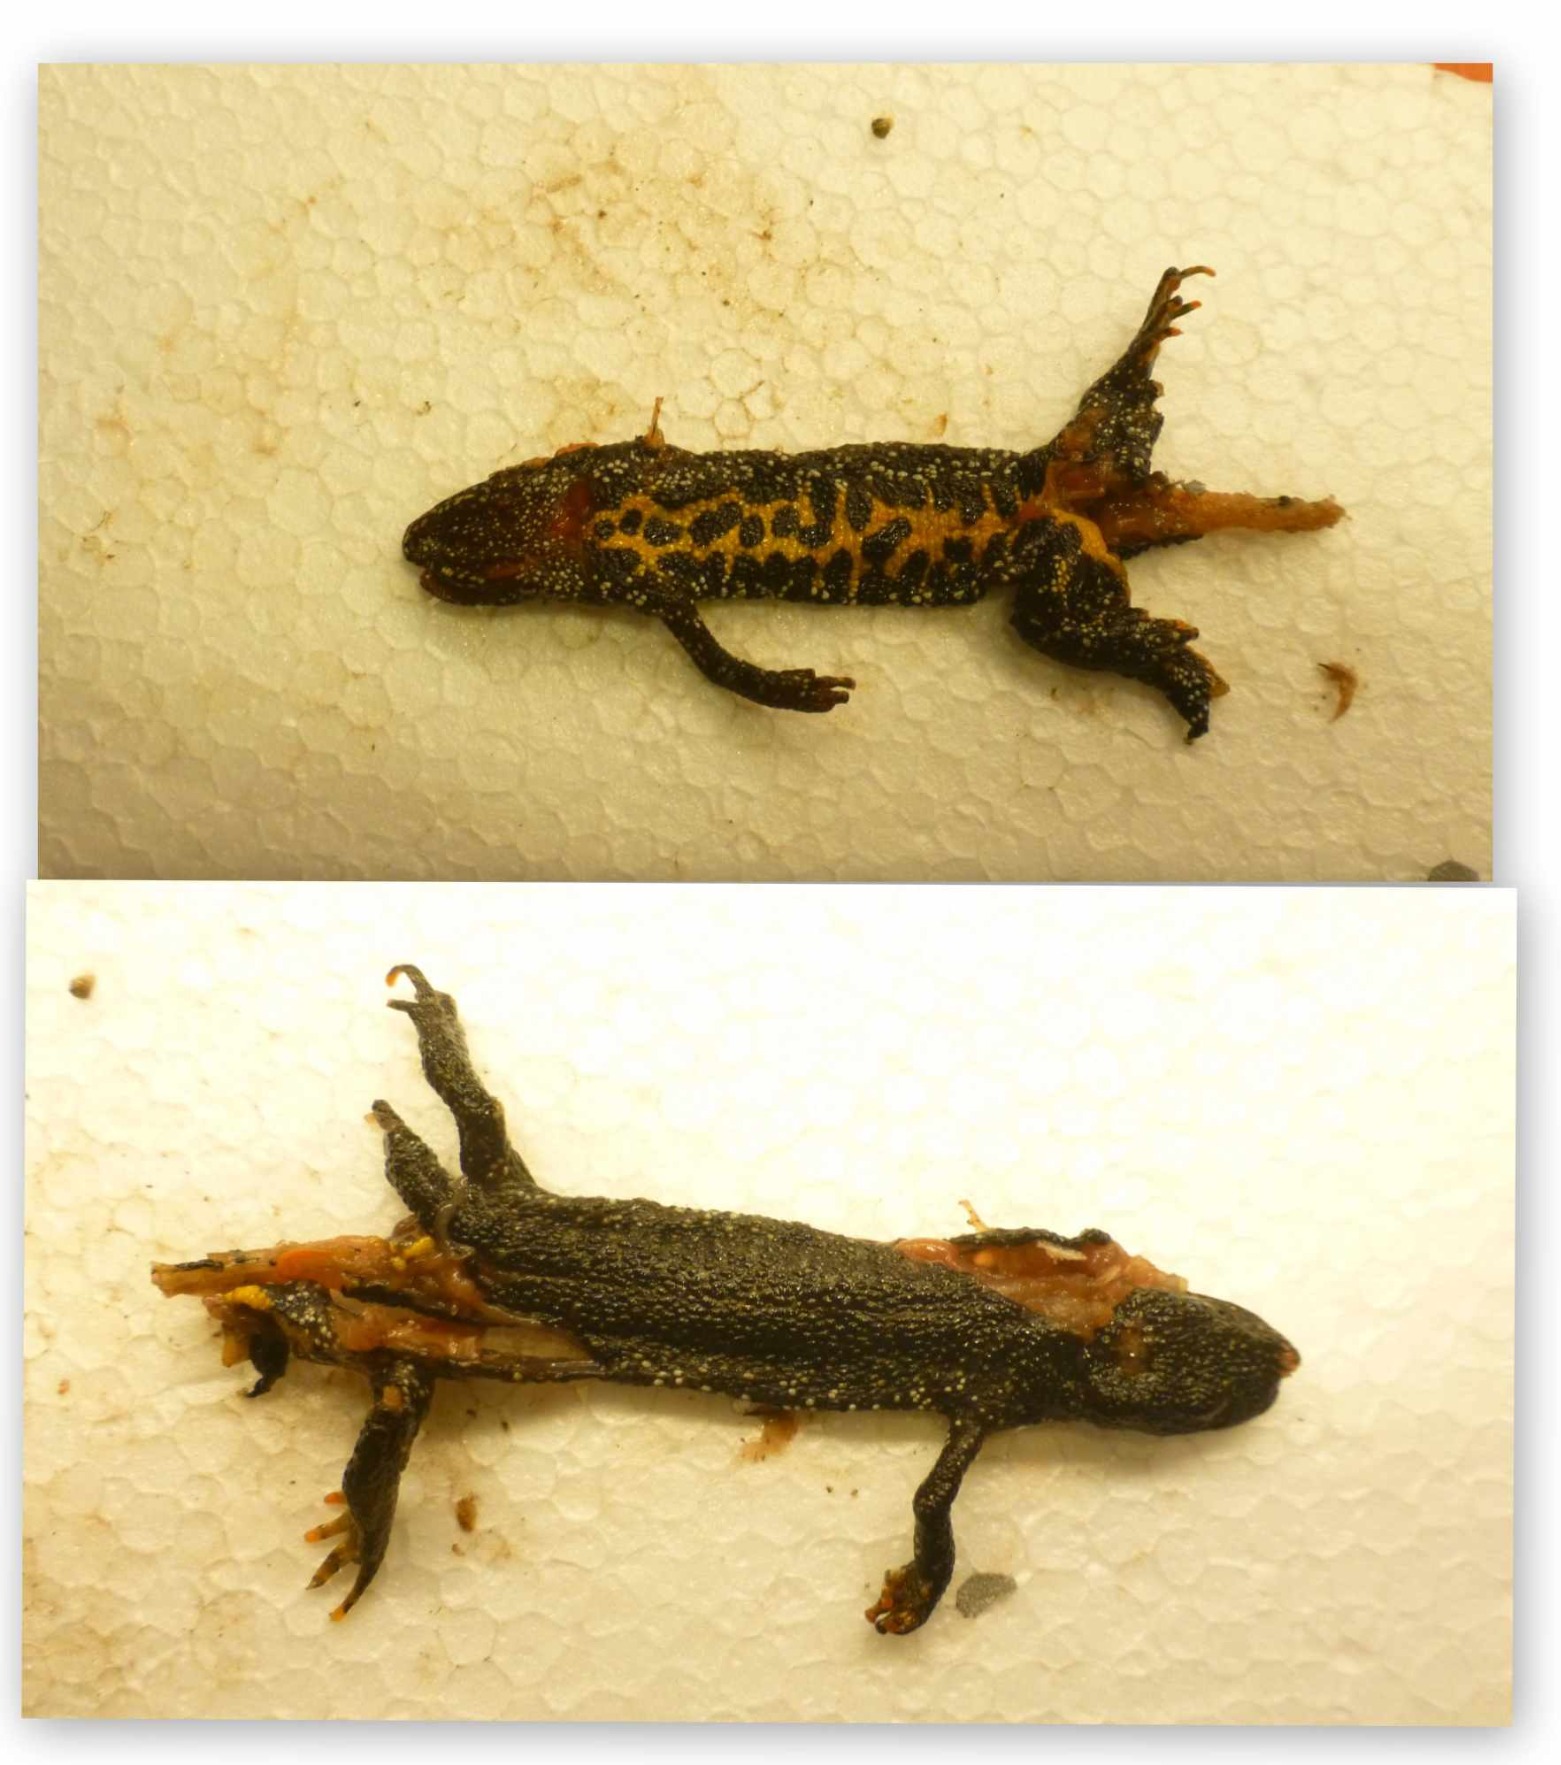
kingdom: Animalia
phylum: Chordata
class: Amphibia
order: Caudata
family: Salamandridae
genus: Triturus
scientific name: Triturus cristatus
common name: Stor vandsalamander
